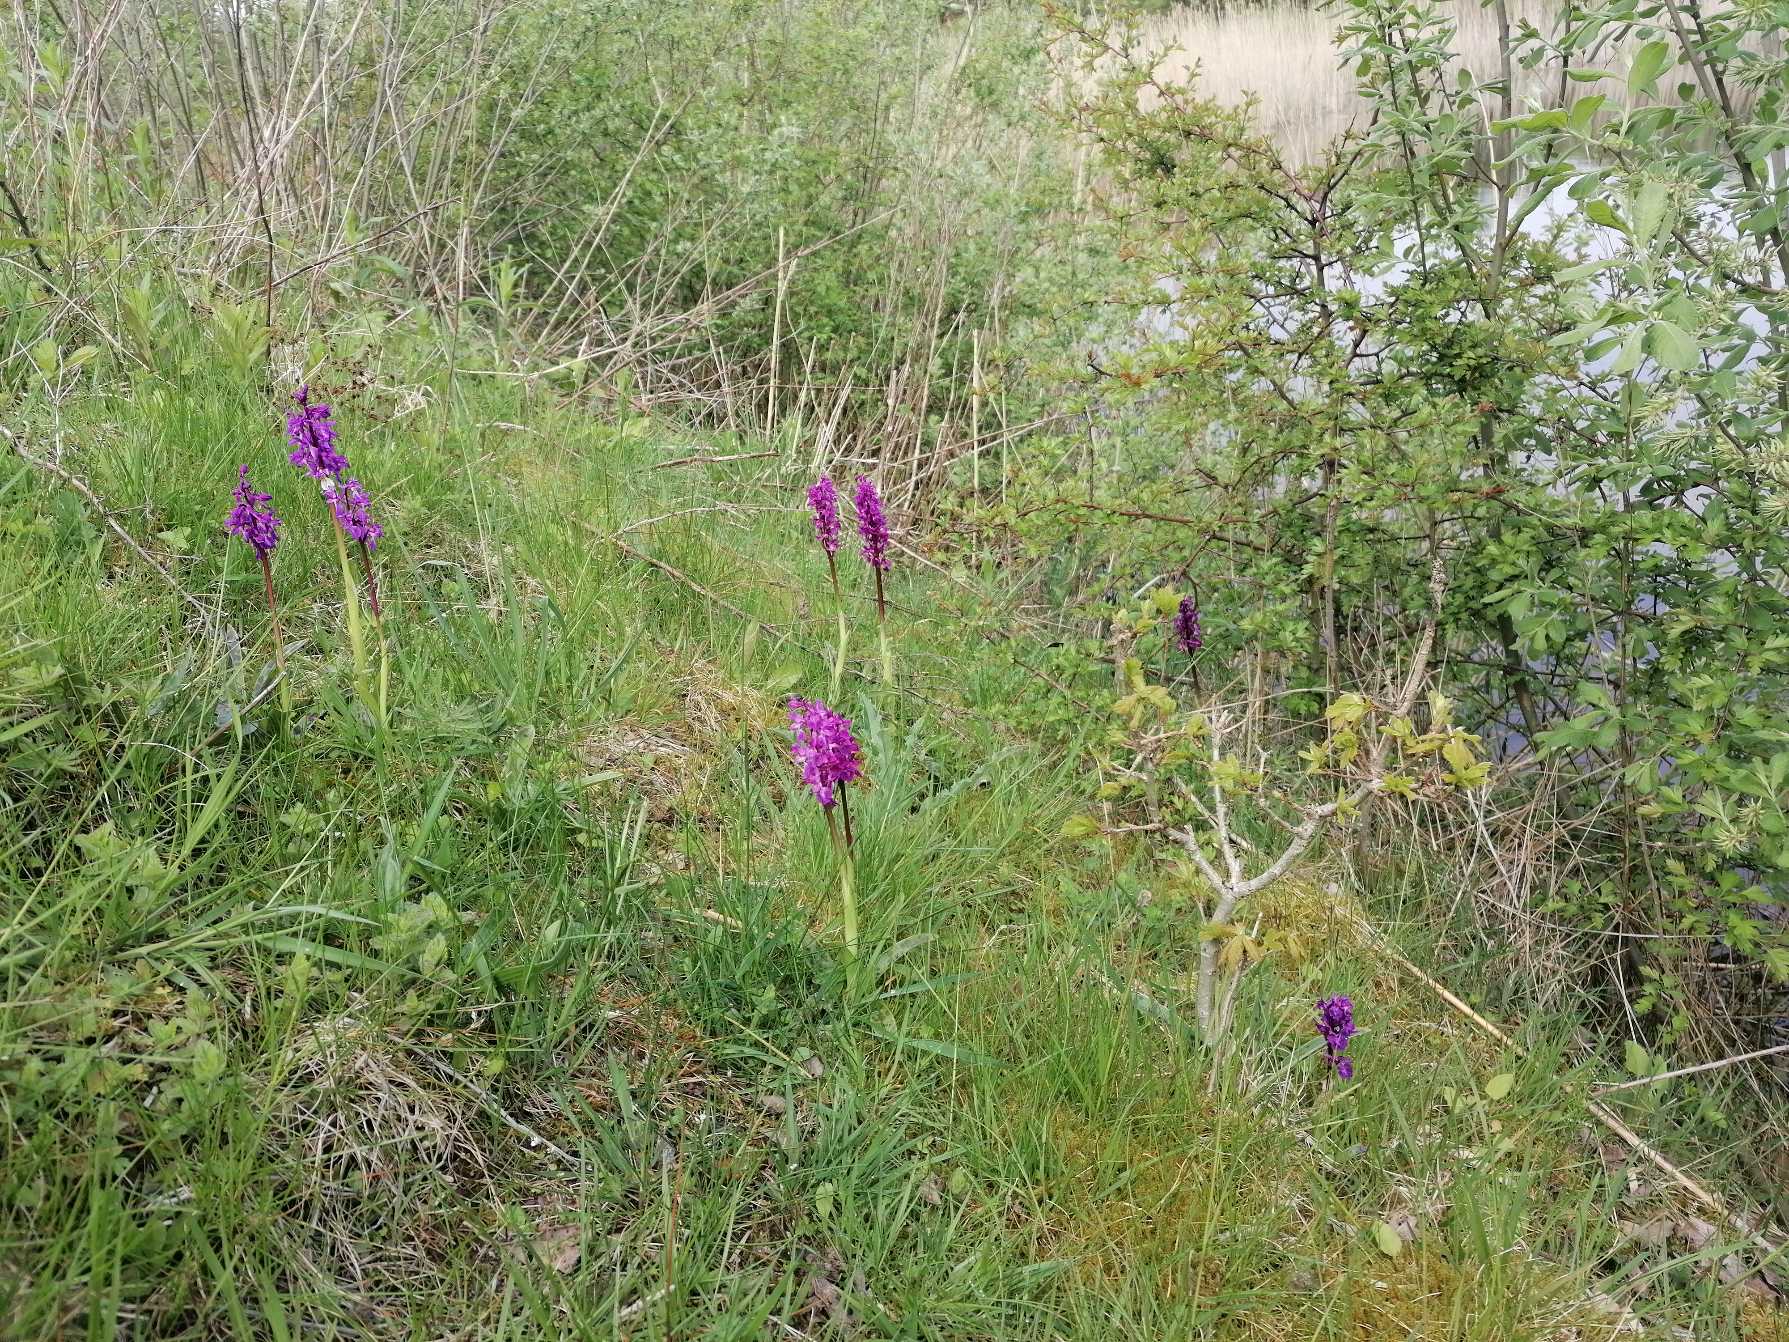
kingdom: Plantae
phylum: Tracheophyta
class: Liliopsida
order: Asparagales
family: Orchidaceae
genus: Orchis
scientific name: Orchis mascula
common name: Tyndakset gøgeurt
